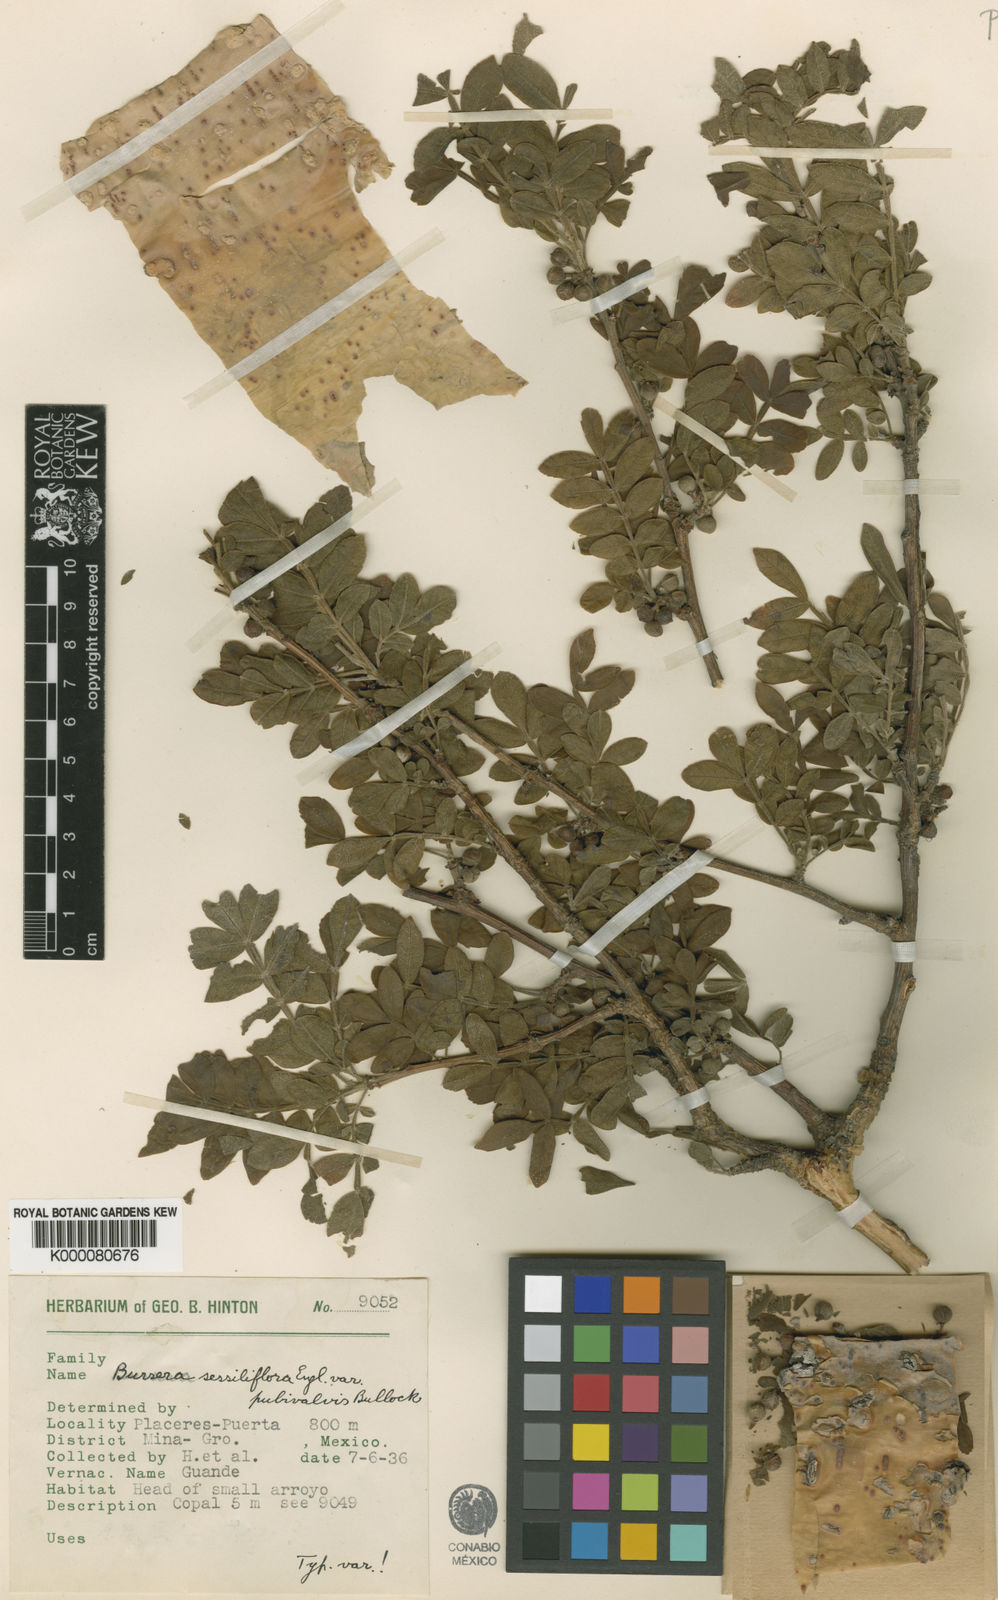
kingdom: Plantae
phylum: Tracheophyta
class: Magnoliopsida
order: Sapindales
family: Burseraceae
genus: Bursera
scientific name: Bursera ariensis
